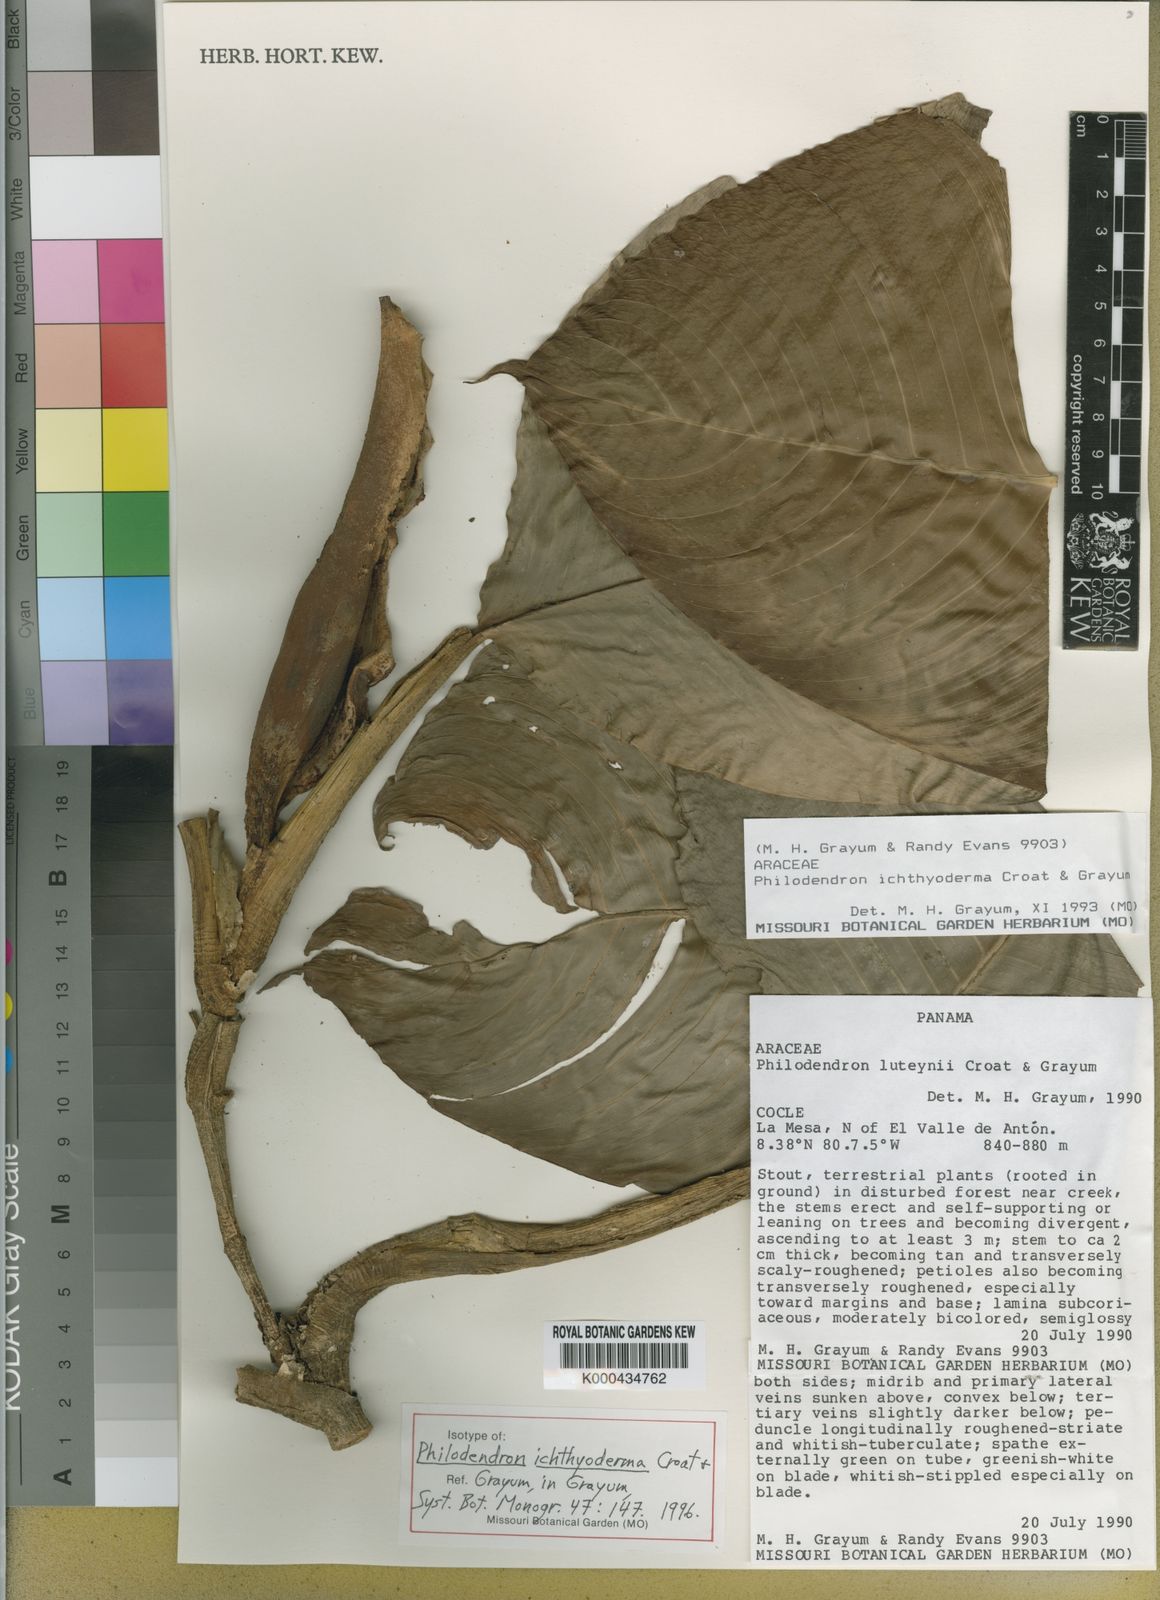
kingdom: Plantae
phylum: Tracheophyta
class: Liliopsida
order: Alismatales
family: Araceae
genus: Philodendron
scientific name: Philodendron ichthyoderma
